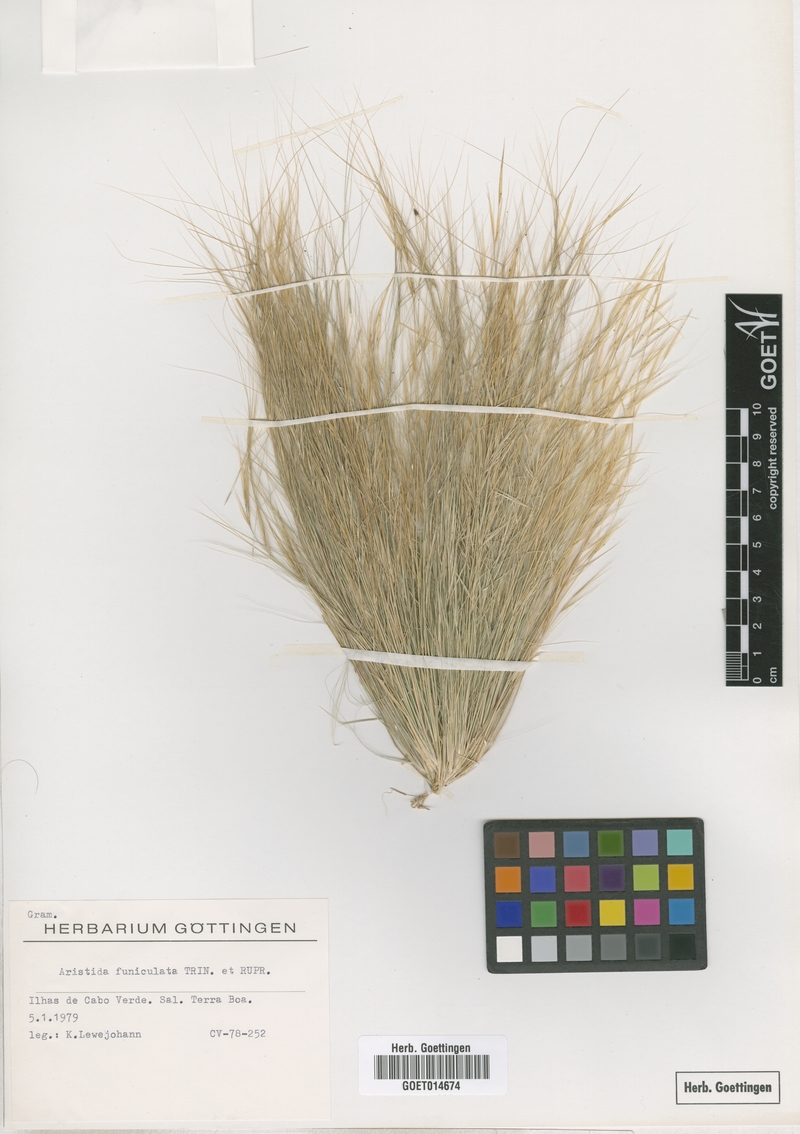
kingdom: Plantae
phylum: Tracheophyta
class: Liliopsida
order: Poales
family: Poaceae
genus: Aristida
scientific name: Aristida funiculata
